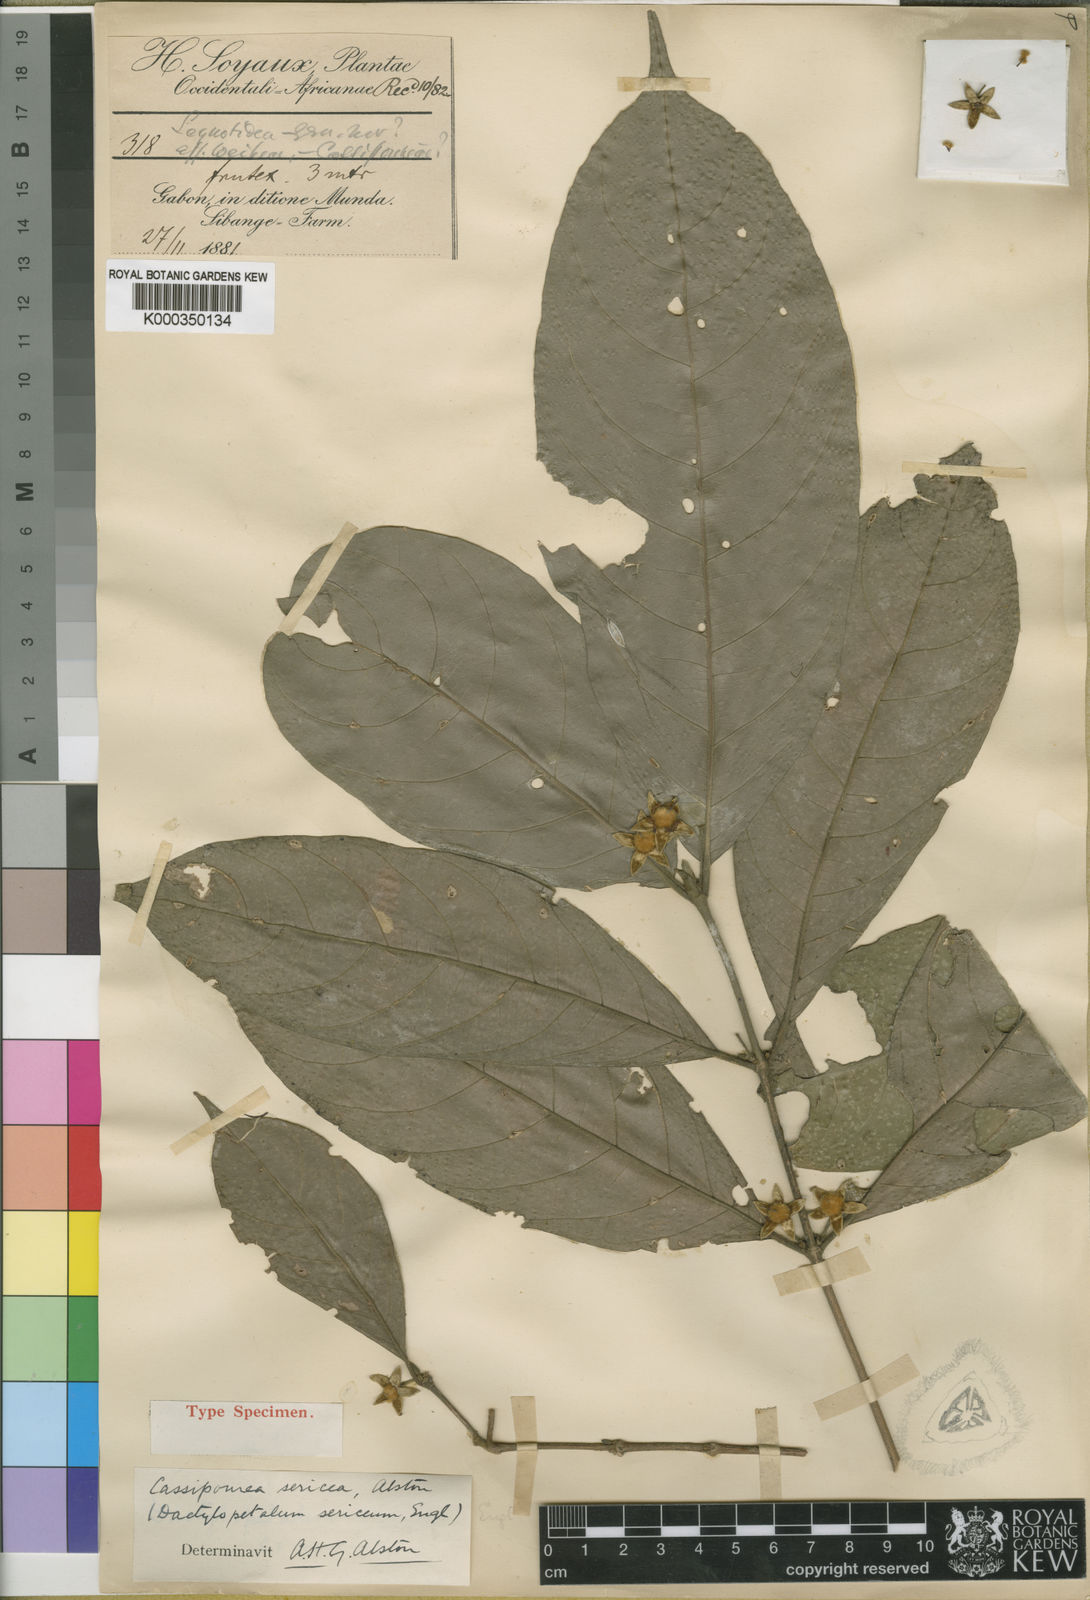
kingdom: Plantae
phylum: Tracheophyta
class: Magnoliopsida
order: Malpighiales
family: Rhizophoraceae
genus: Cassipourea
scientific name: Cassipourea schizocalyx
